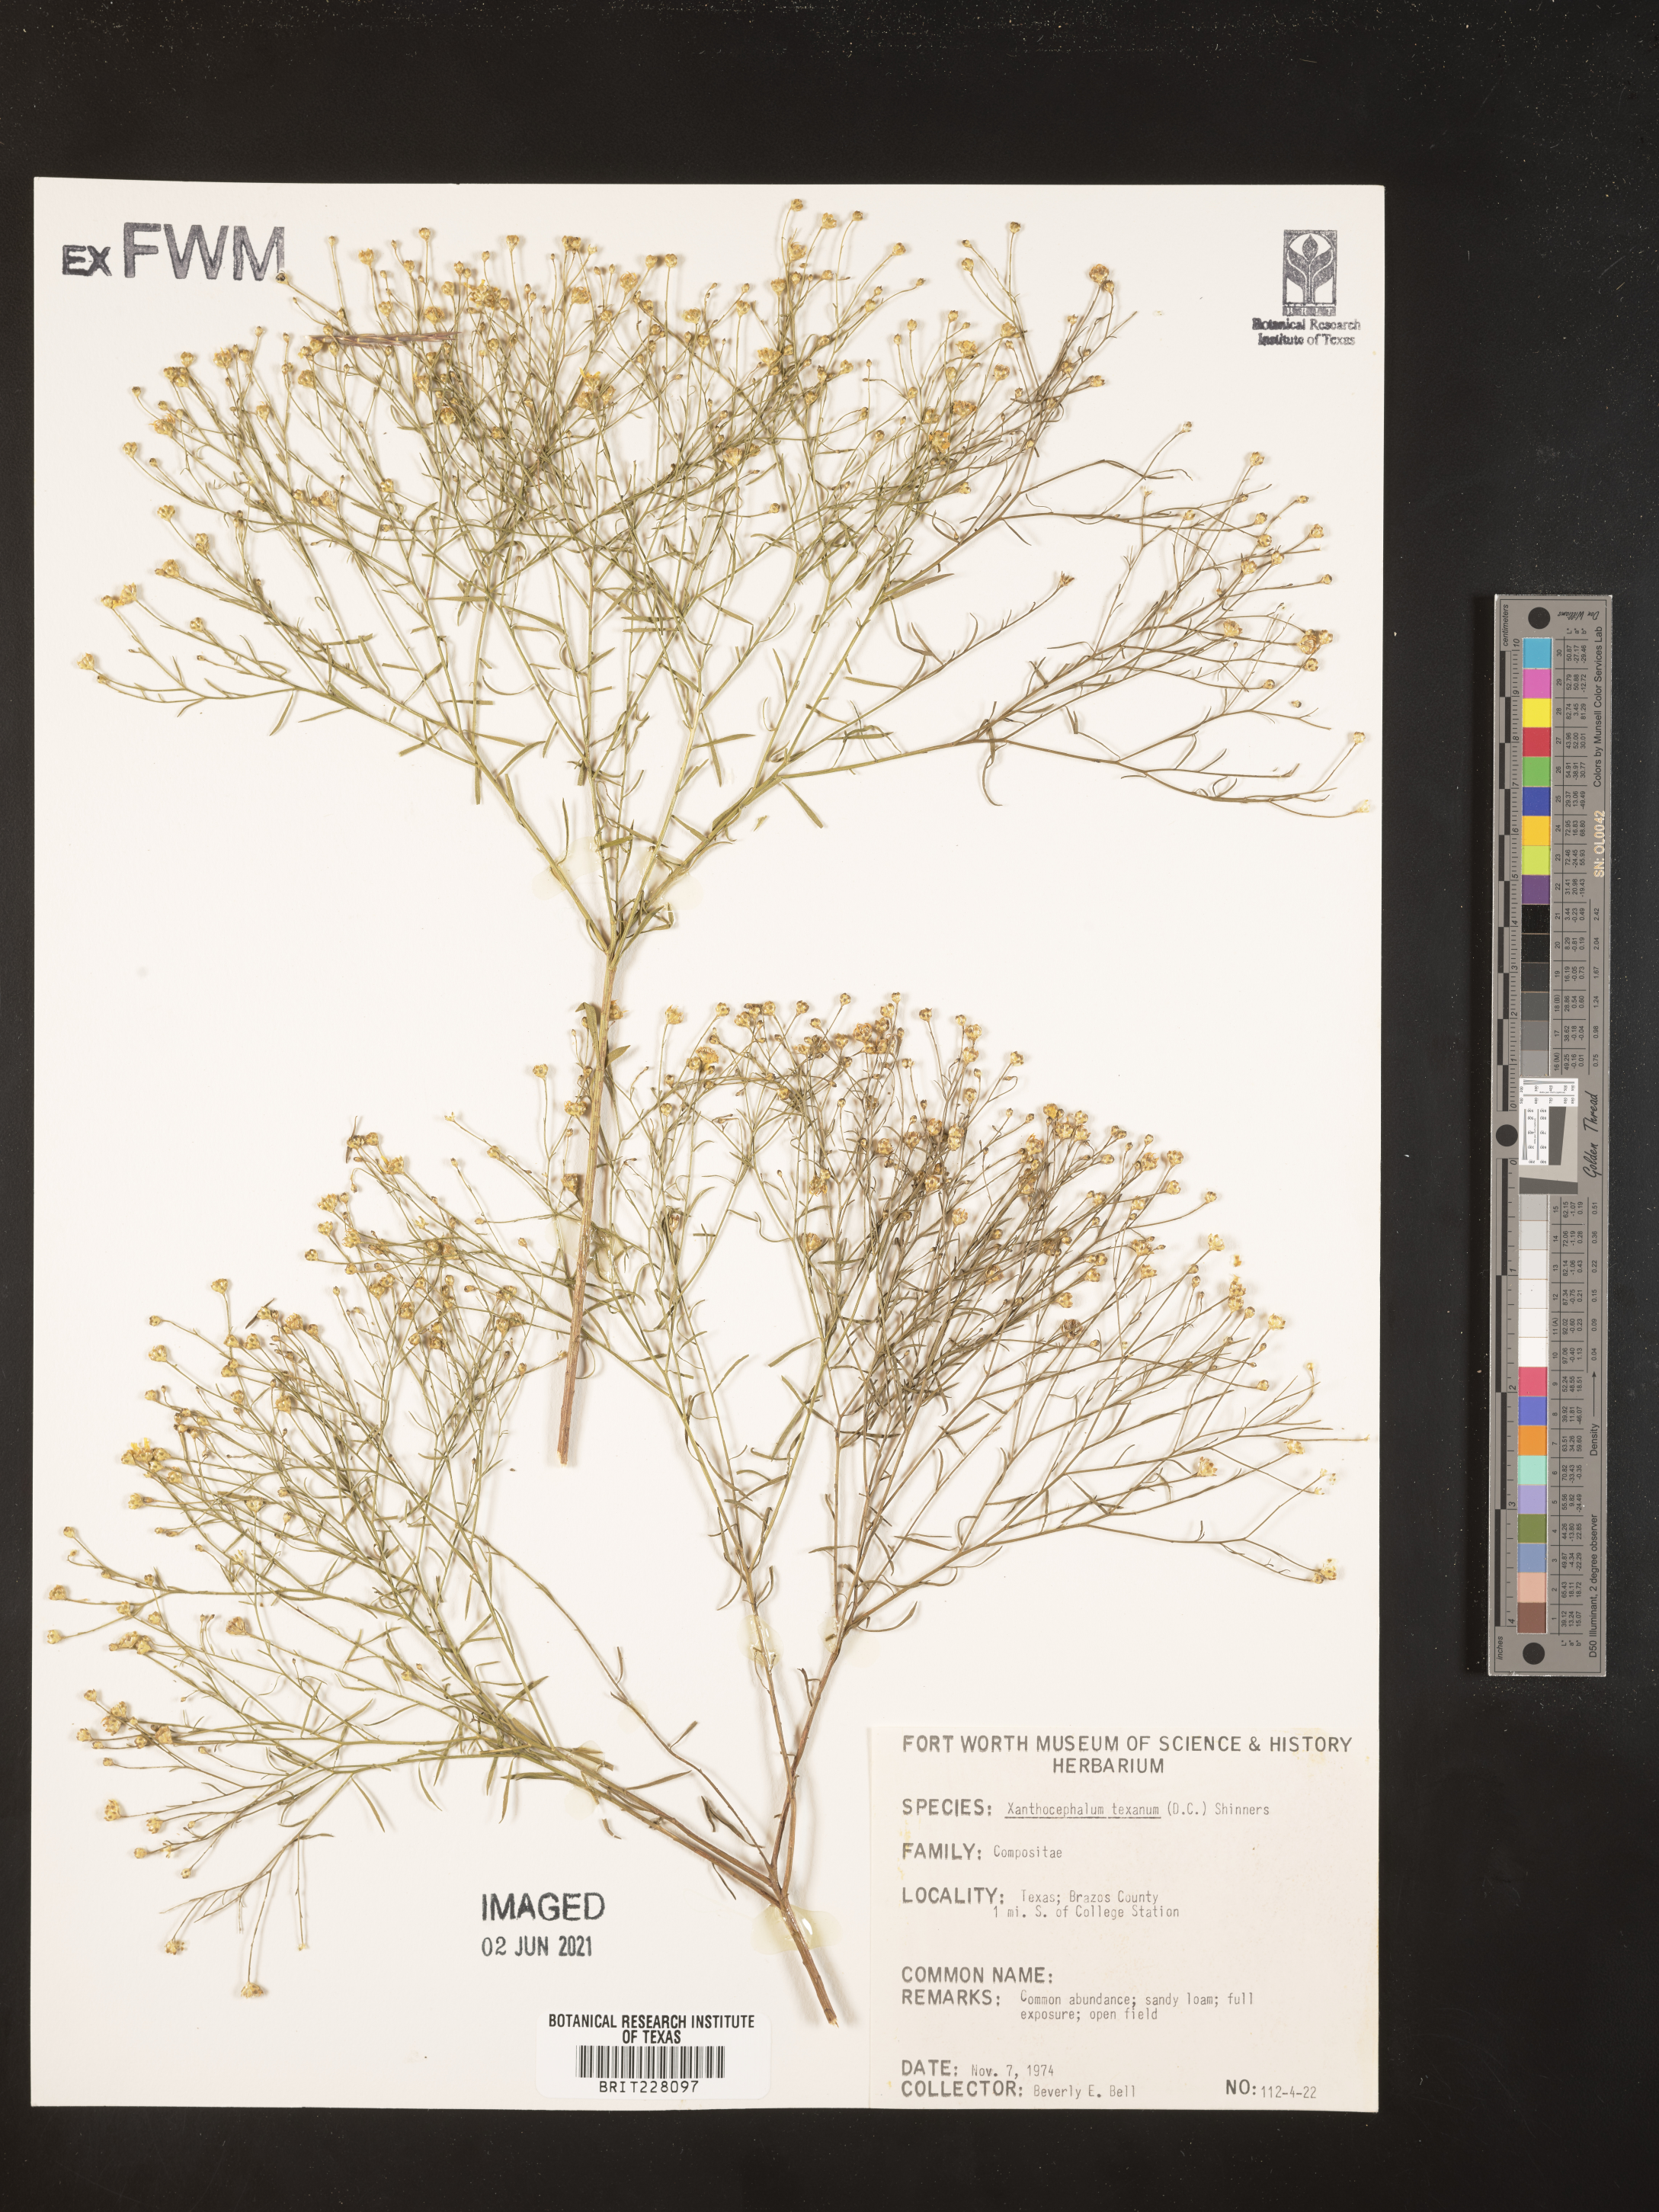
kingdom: Plantae
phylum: Tracheophyta
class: Magnoliopsida
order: Asterales
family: Asteraceae
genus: Gutierrezia
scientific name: Gutierrezia texana
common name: Texas snakeweed
